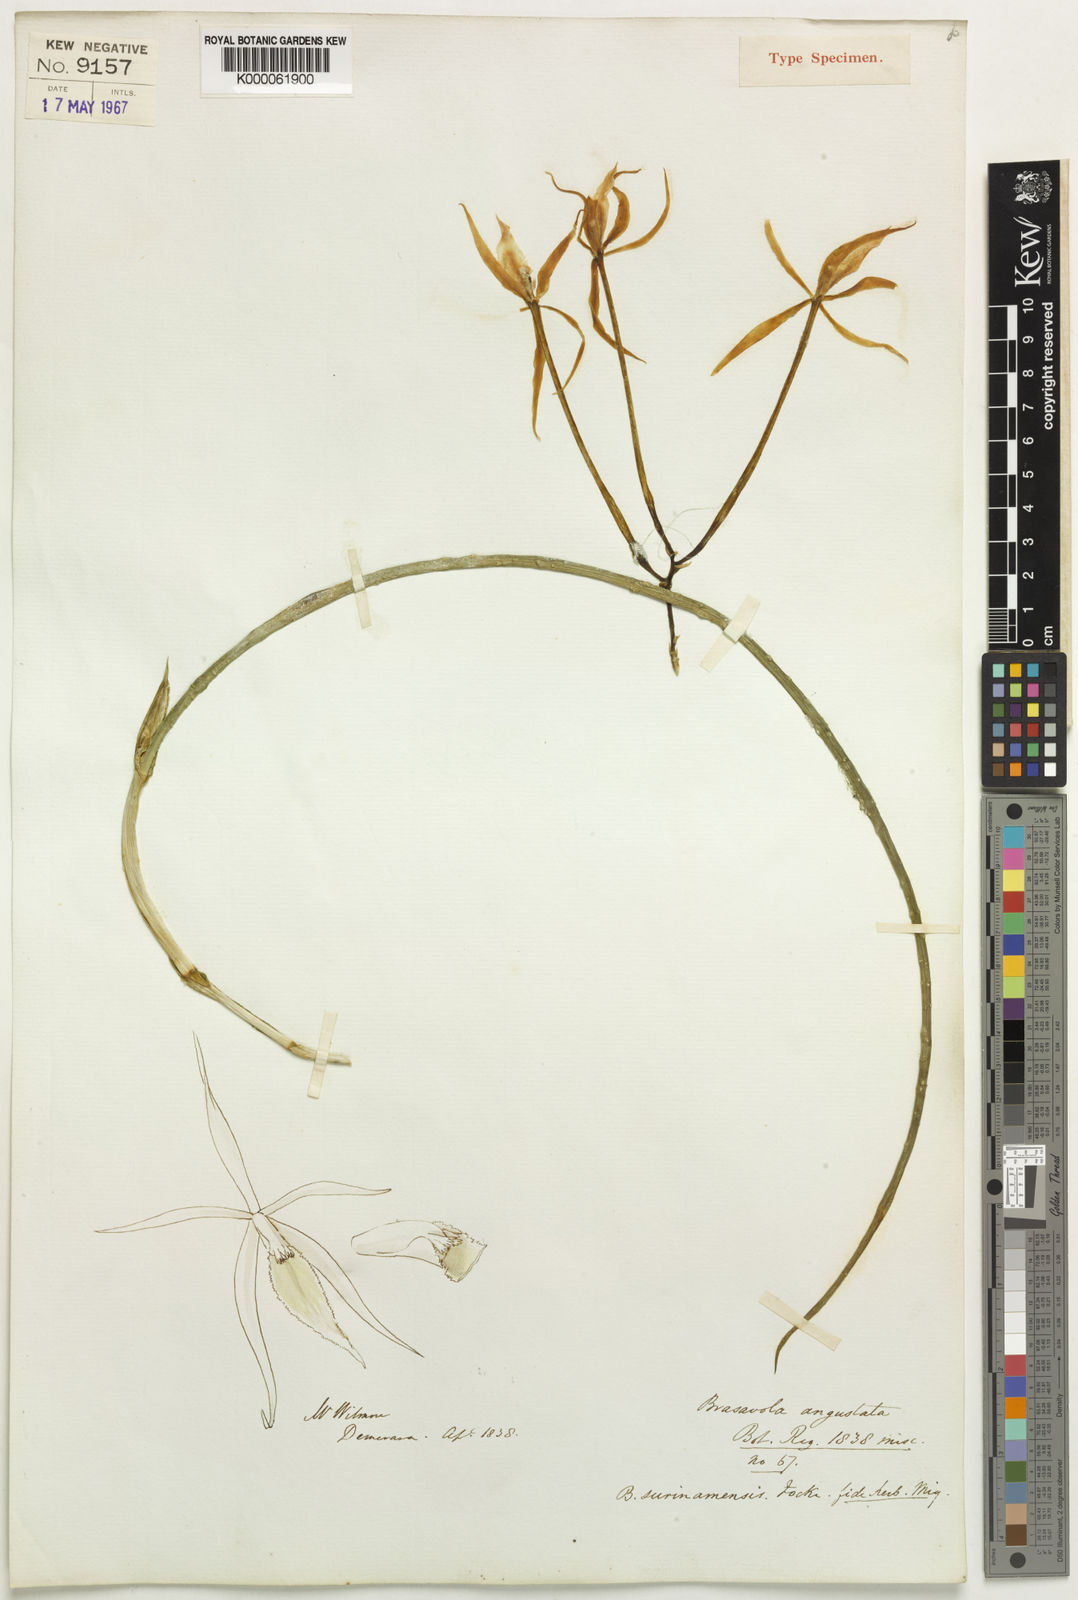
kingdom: Plantae
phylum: Tracheophyta
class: Liliopsida
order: Asparagales
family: Orchidaceae
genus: Brassavola
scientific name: Brassavola angustata
